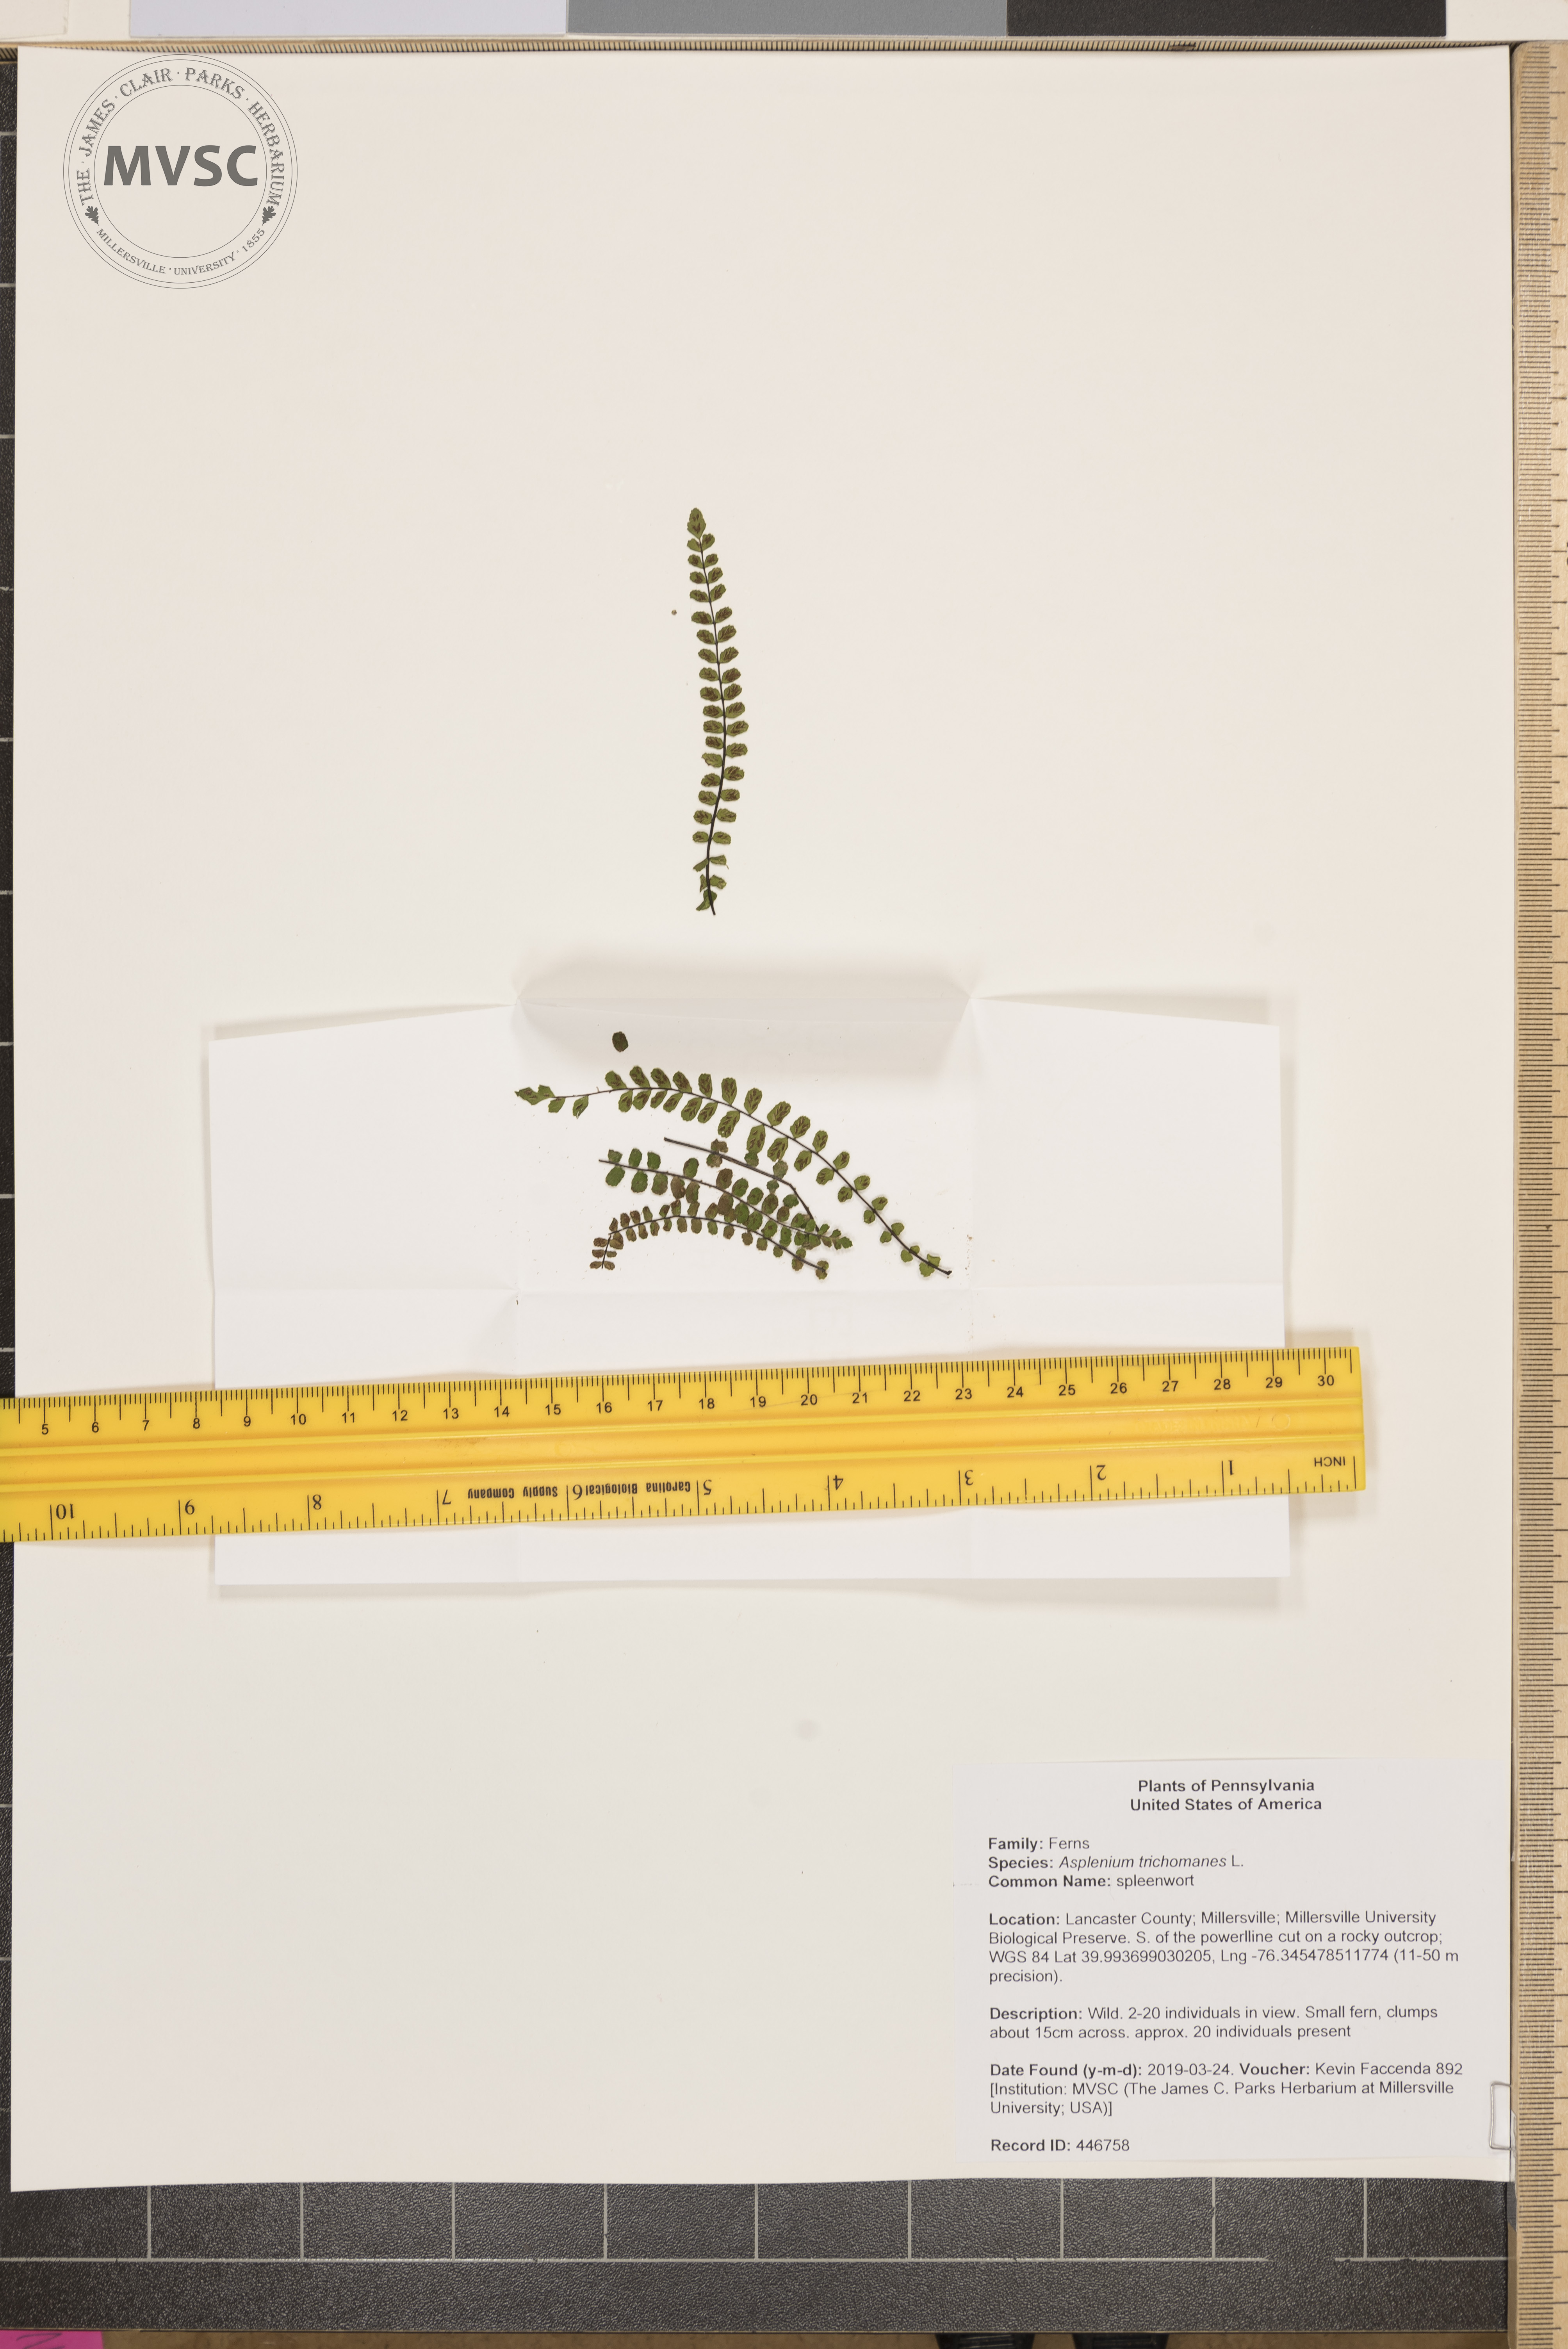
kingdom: Plantae
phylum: Tracheophyta
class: Polypodiopsida
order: Polypodiales
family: Aspleniaceae
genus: Asplenium
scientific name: Asplenium trichomanes
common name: spleenwort
